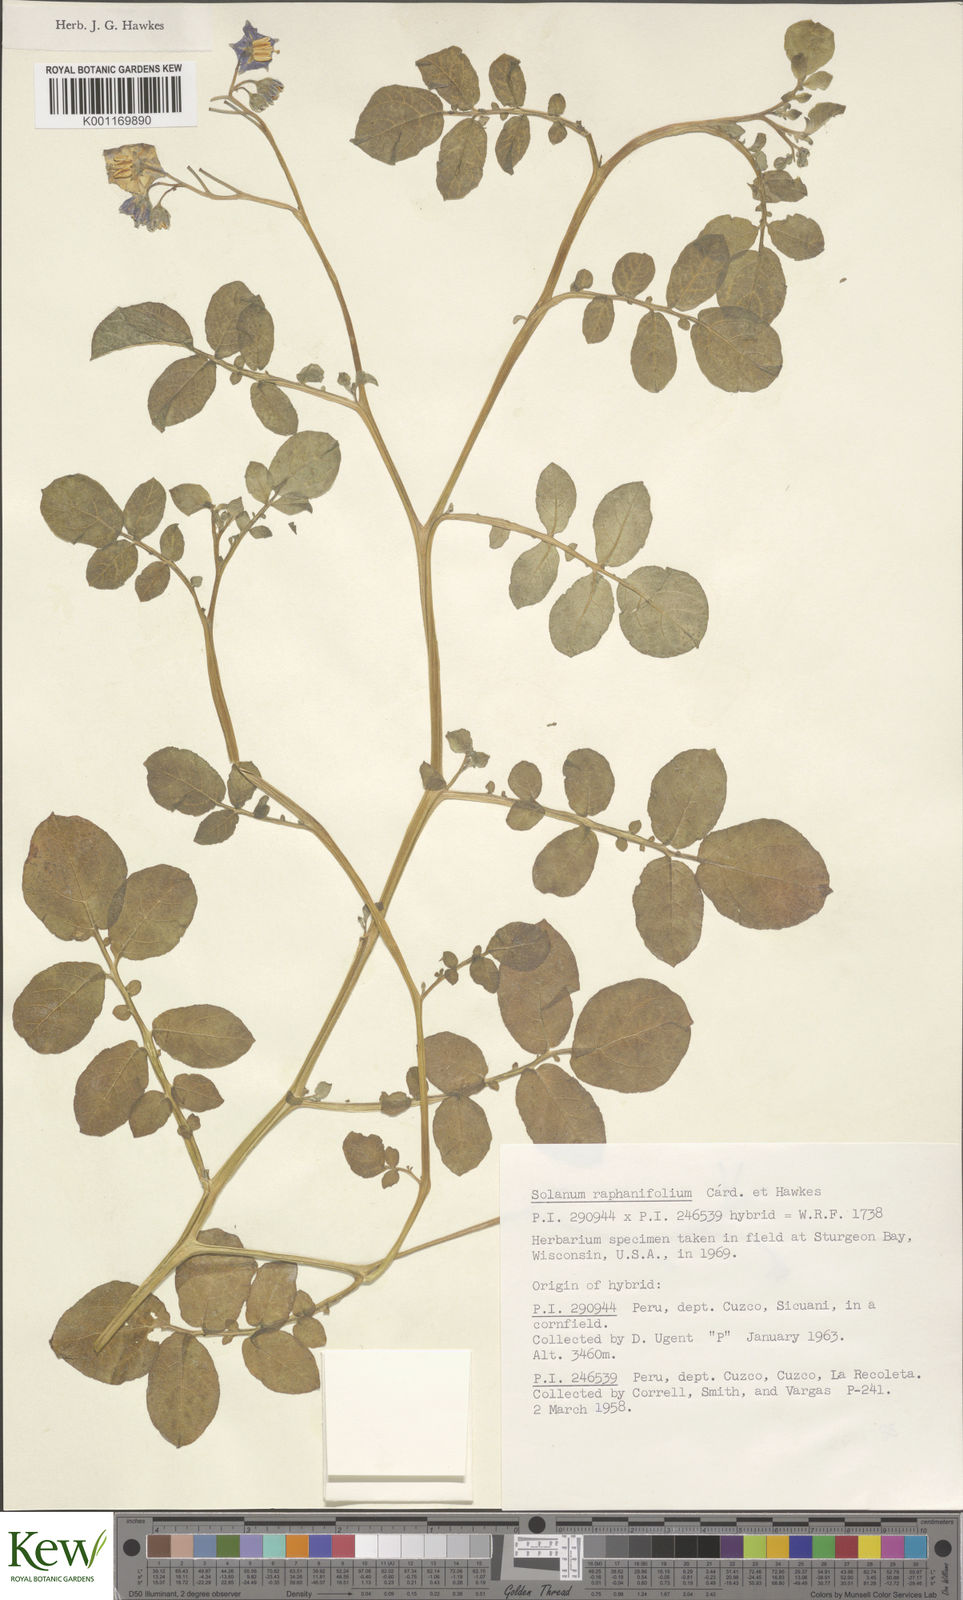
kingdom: Plantae
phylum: Tracheophyta
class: Magnoliopsida
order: Solanales
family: Solanaceae
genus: Solanum
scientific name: Solanum
